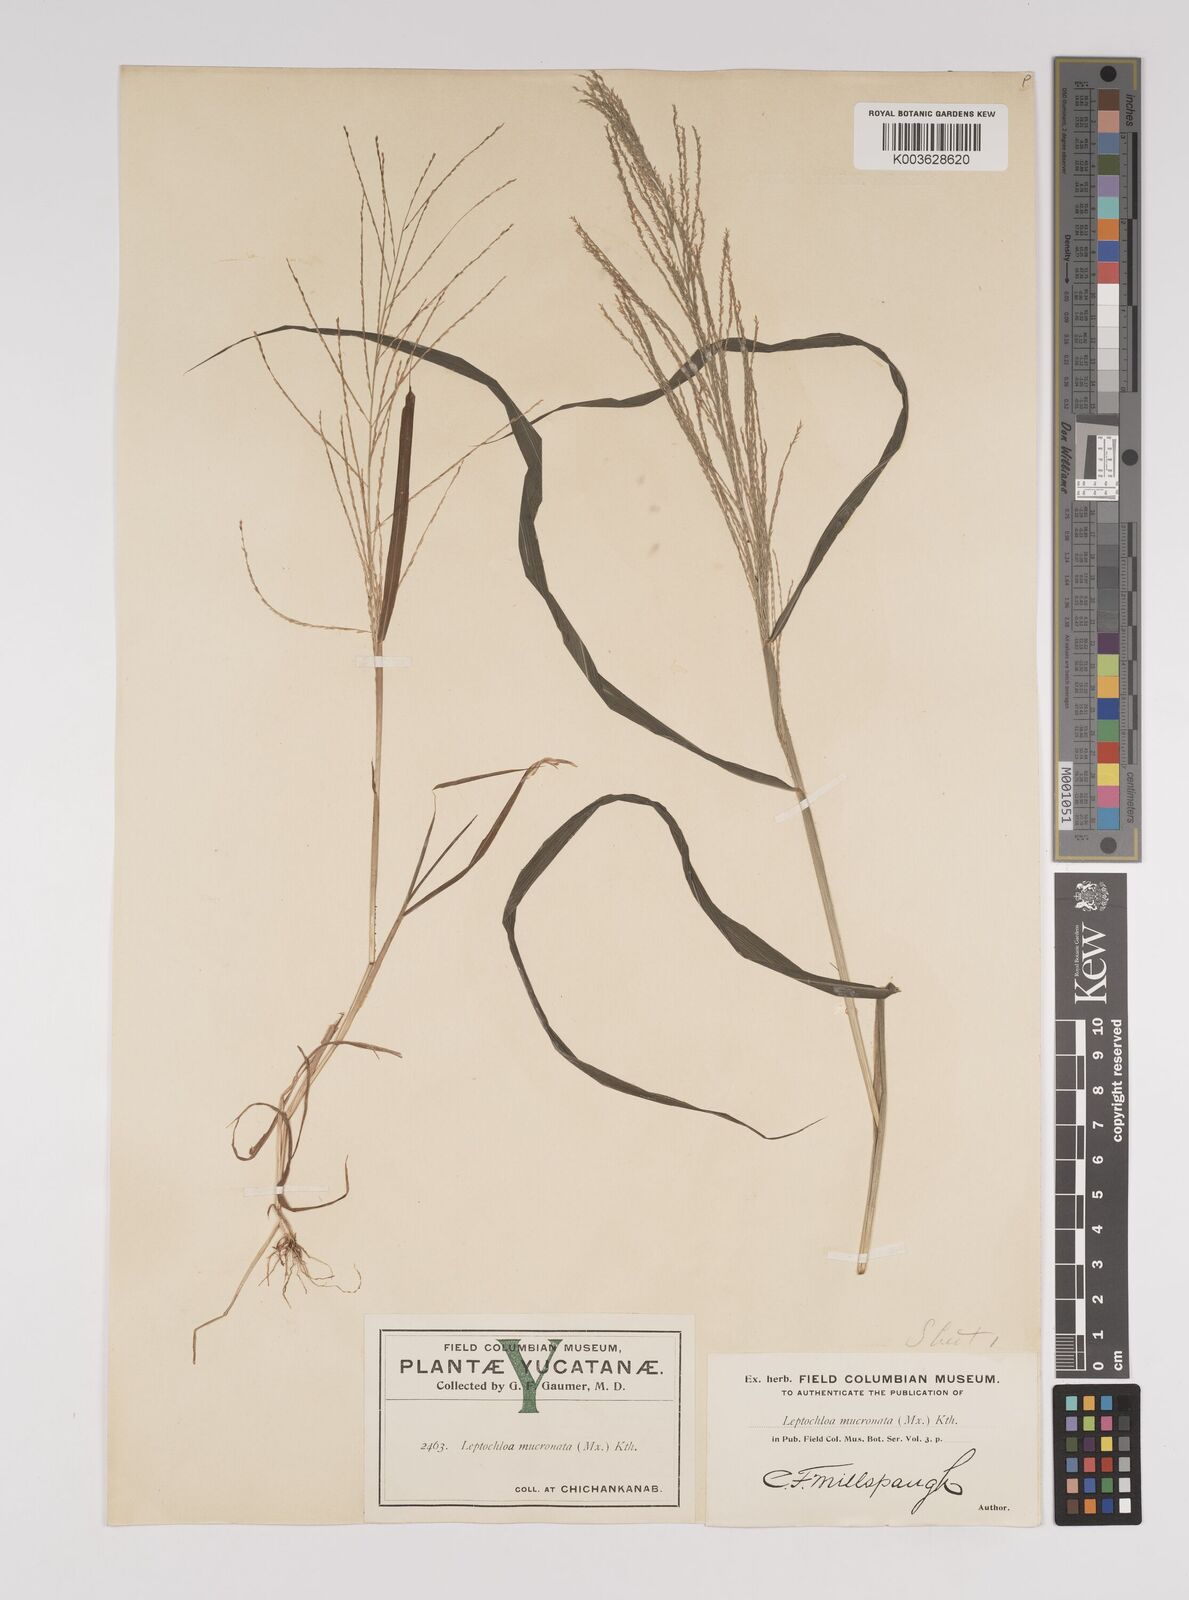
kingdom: Plantae
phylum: Tracheophyta
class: Liliopsida
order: Poales
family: Poaceae
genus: Leptochloa
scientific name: Leptochloa panicea
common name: Mucronate sprangletop
